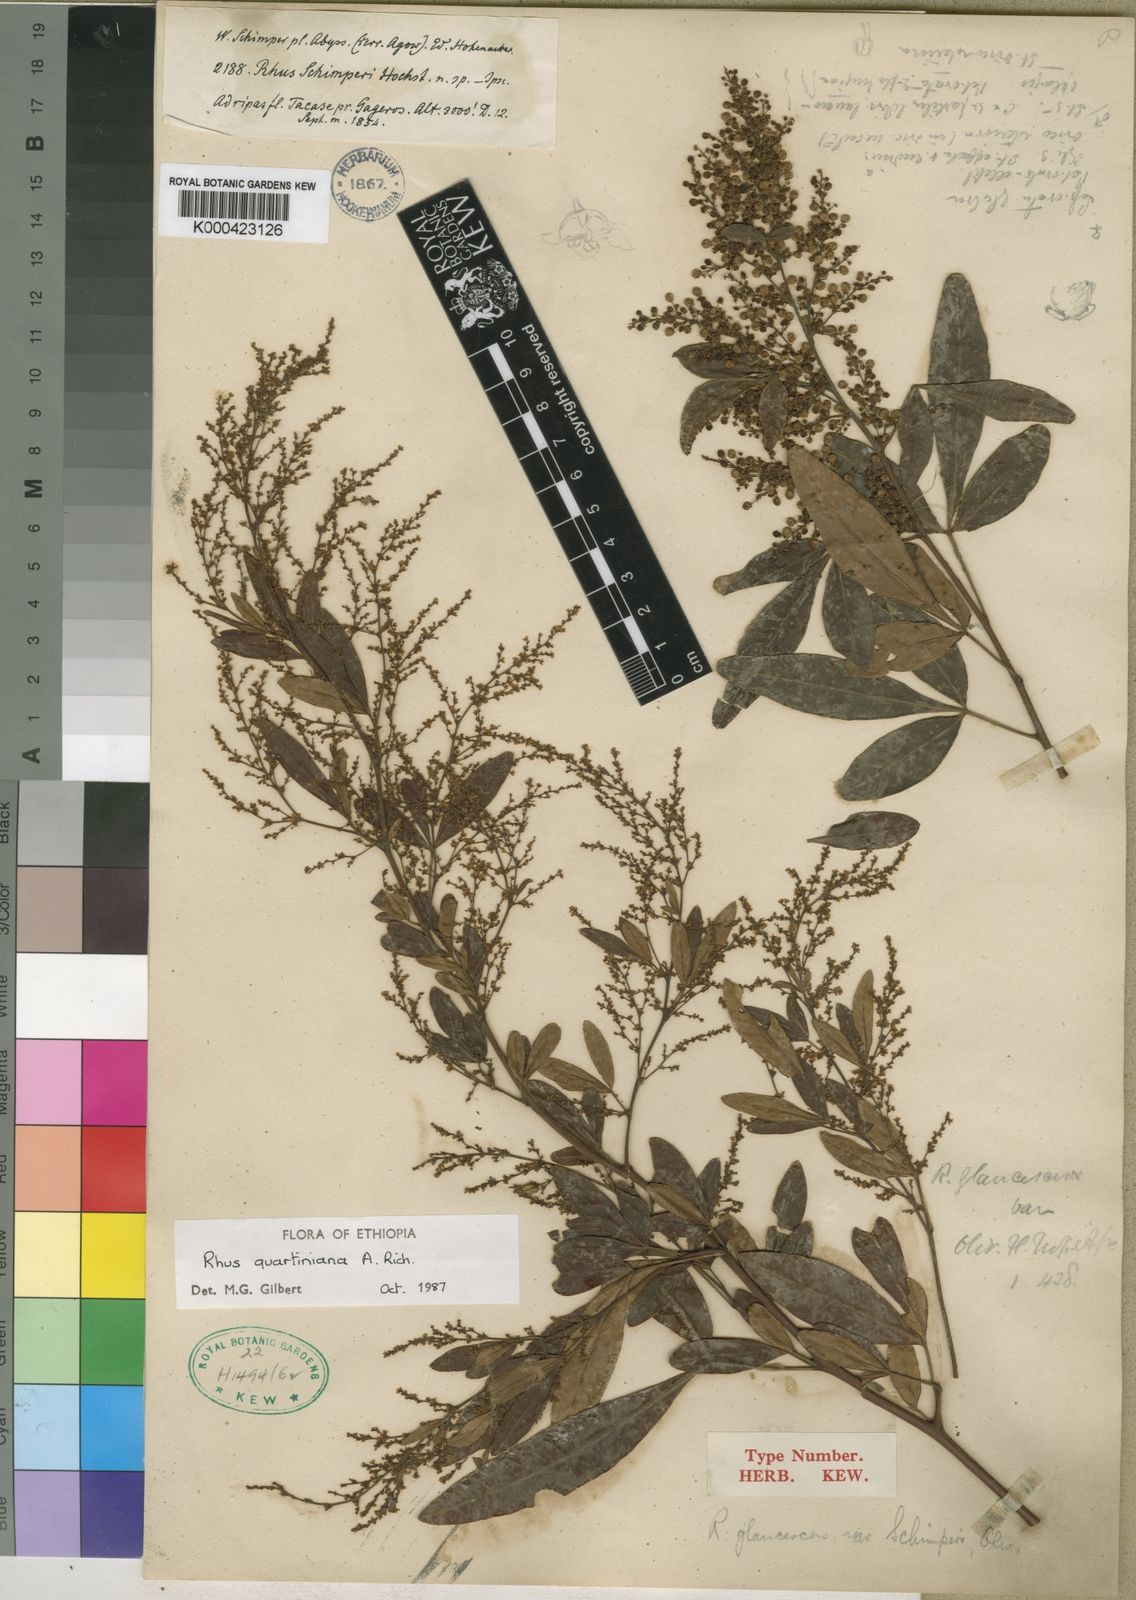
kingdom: Plantae
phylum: Tracheophyta
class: Magnoliopsida
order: Sapindales
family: Anacardiaceae
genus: Searsia
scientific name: Searsia quartiniana
